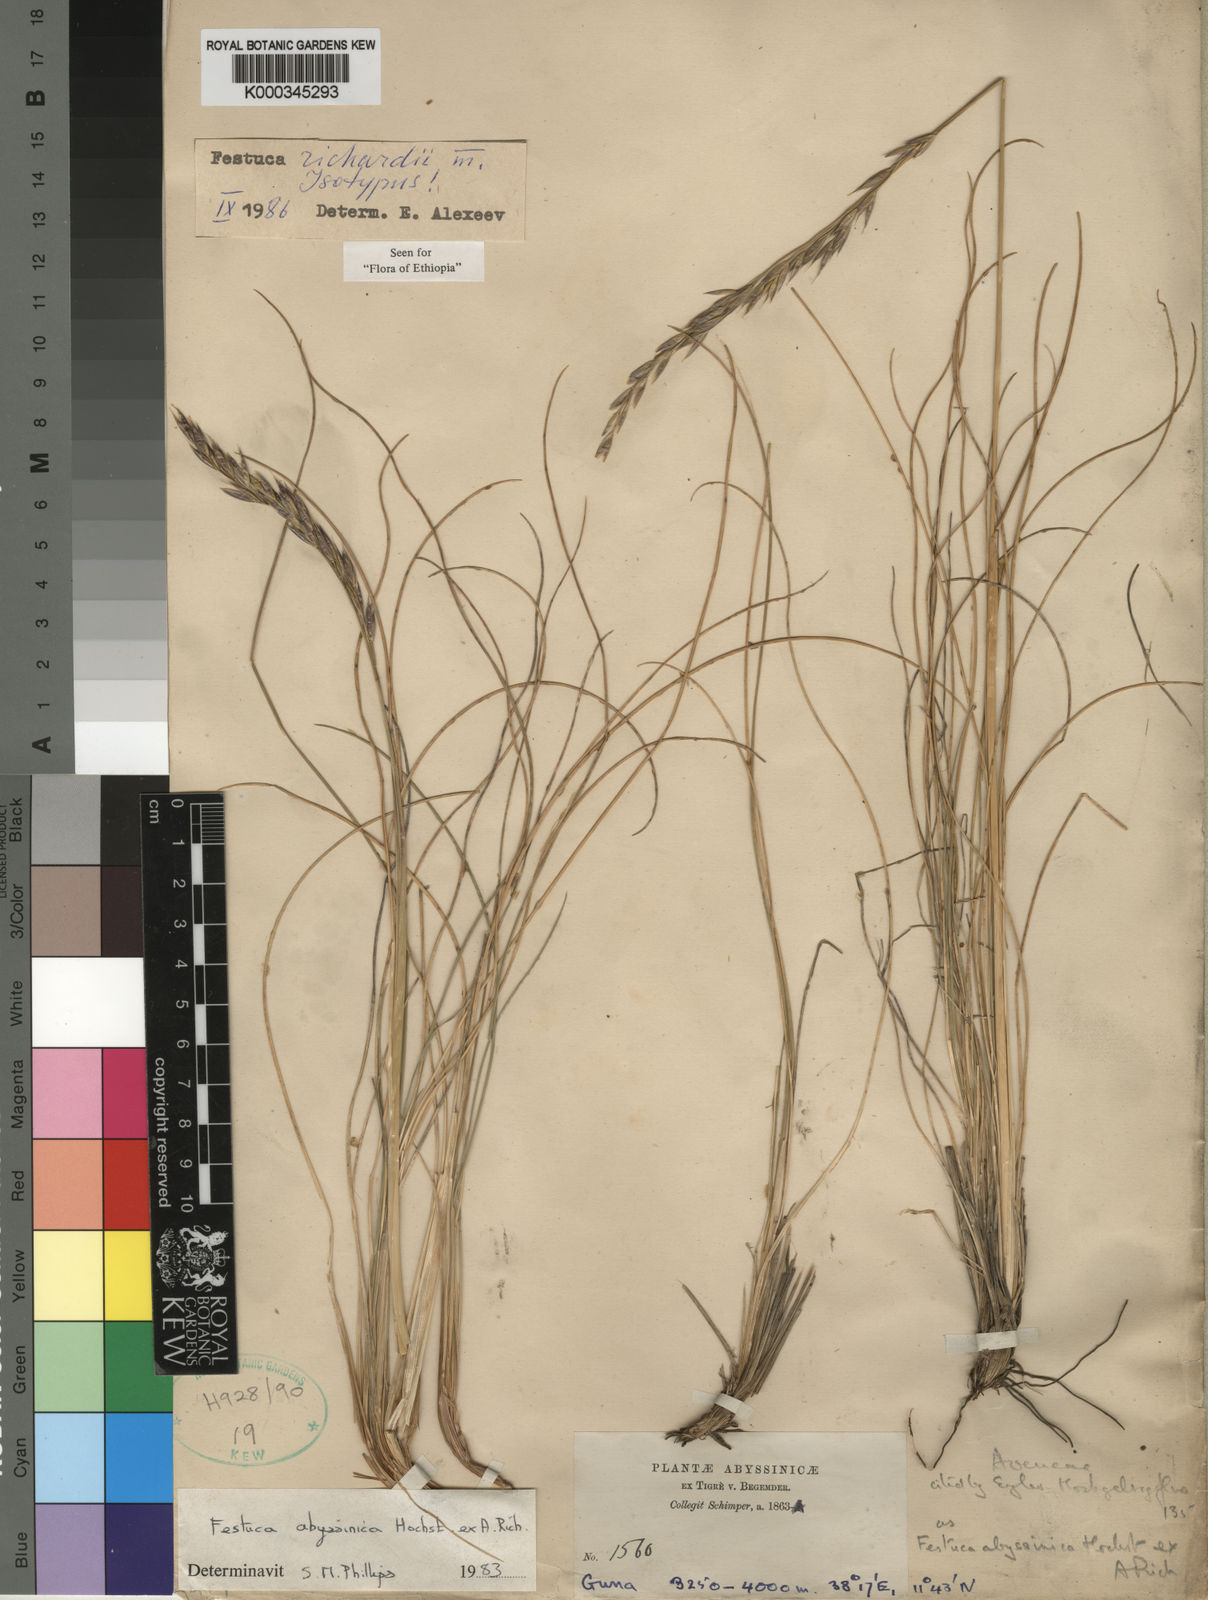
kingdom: Plantae
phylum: Tracheophyta
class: Liliopsida
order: Poales
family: Poaceae
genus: Festuca
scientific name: Festuca richardii
